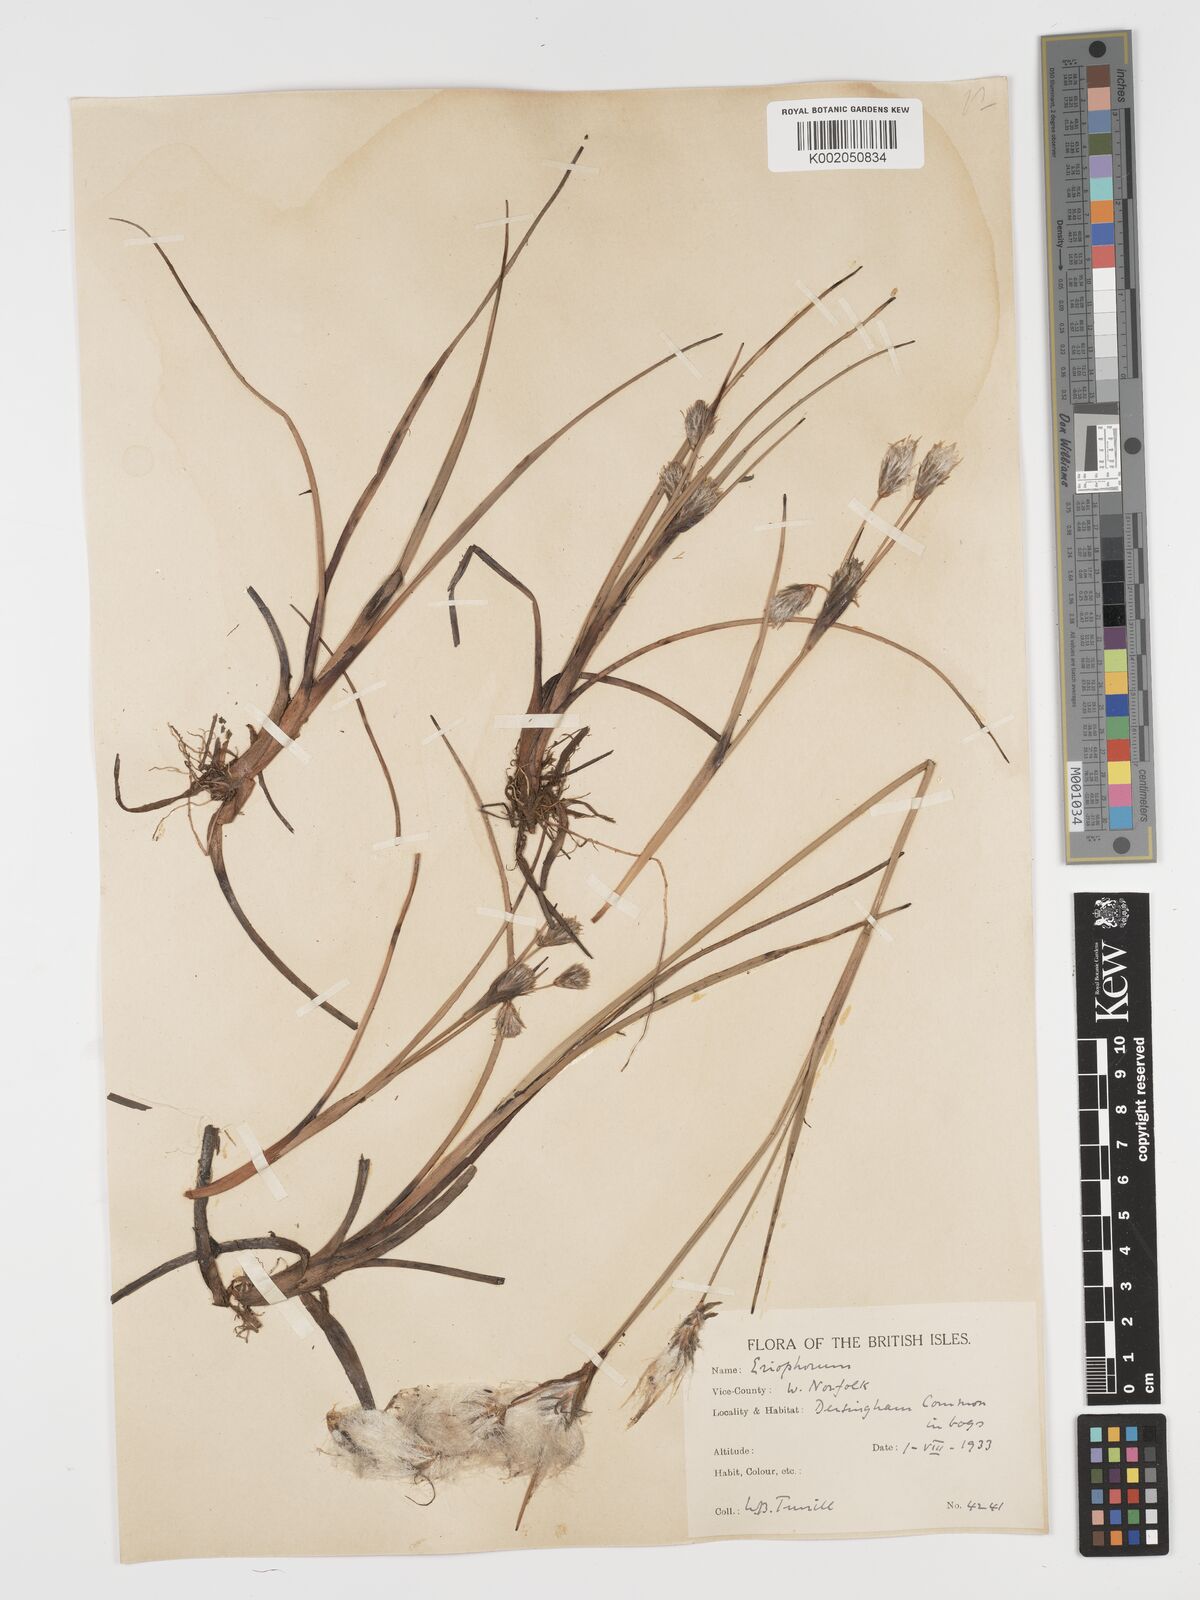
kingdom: Plantae
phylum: Tracheophyta
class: Liliopsida
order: Poales
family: Cyperaceae
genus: Eriophorum
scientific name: Eriophorum angustifolium
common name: Common cottongrass
